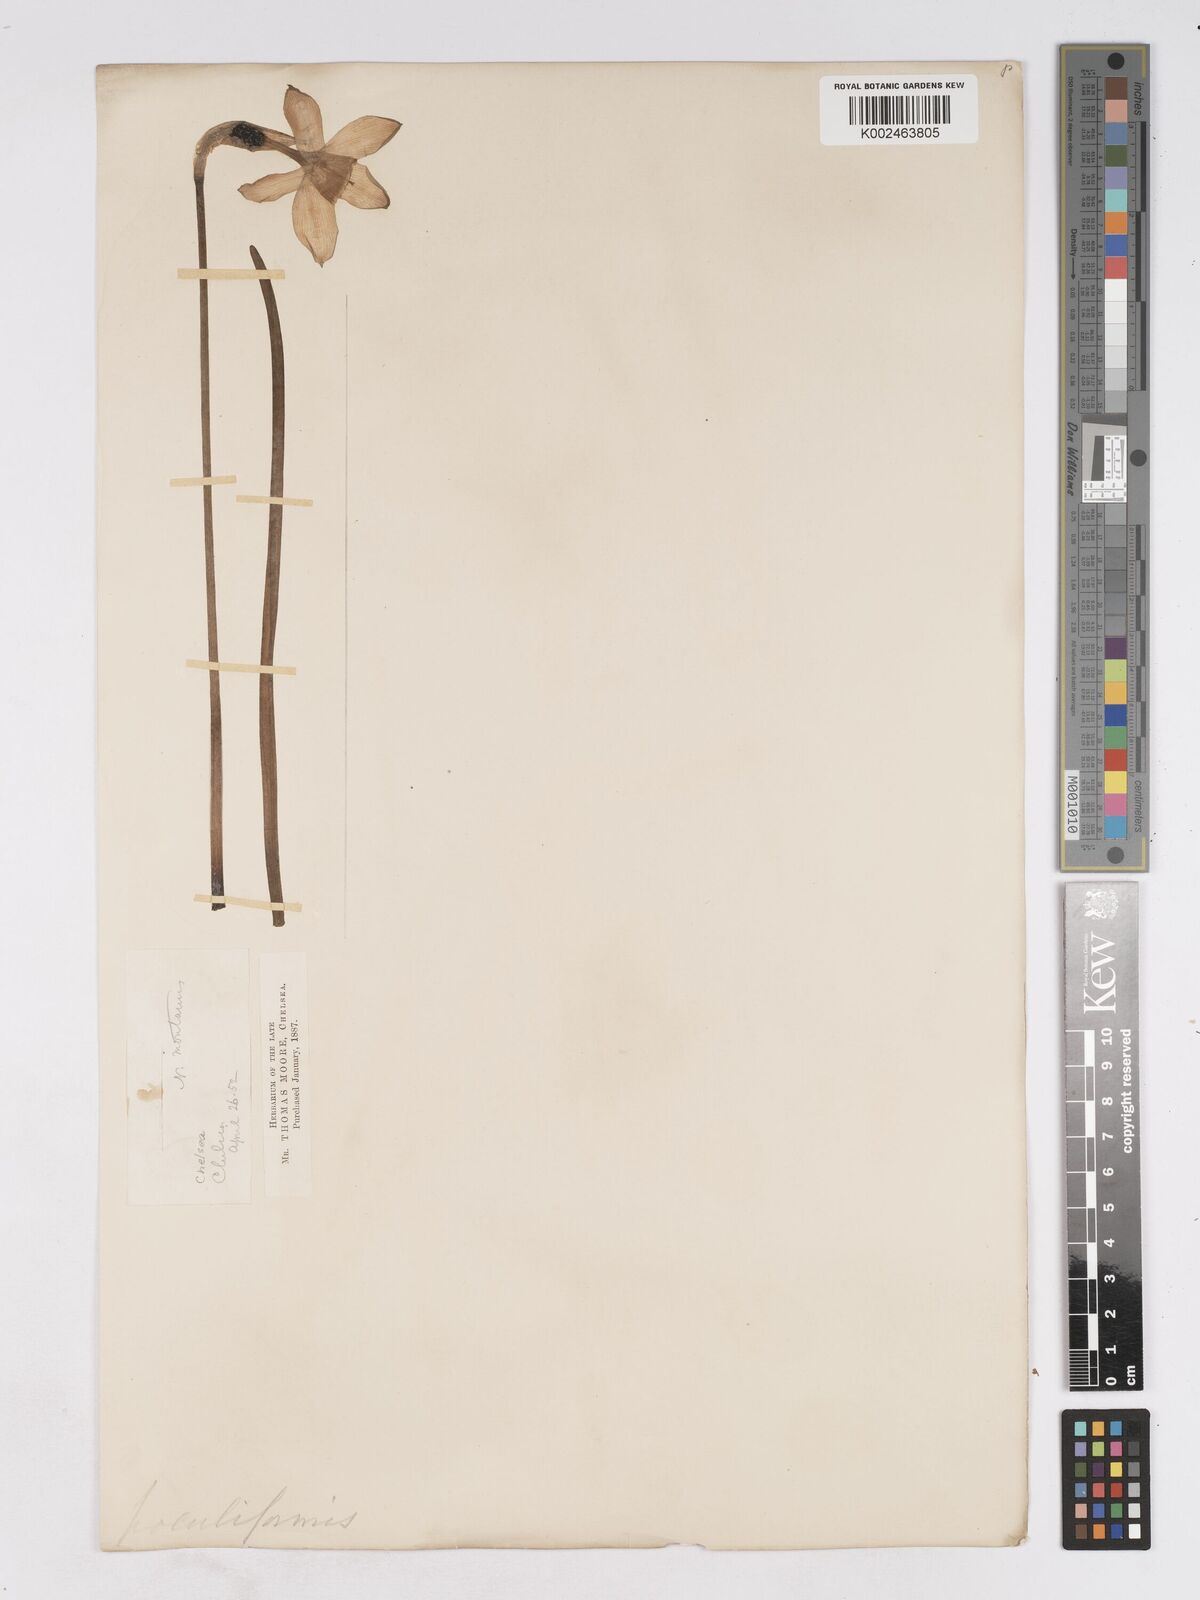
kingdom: Plantae
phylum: Tracheophyta
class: Liliopsida
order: Asparagales
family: Amaryllidaceae
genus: Narcissus
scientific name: Narcissus incomparabilis
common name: Nonesuch daffodil
